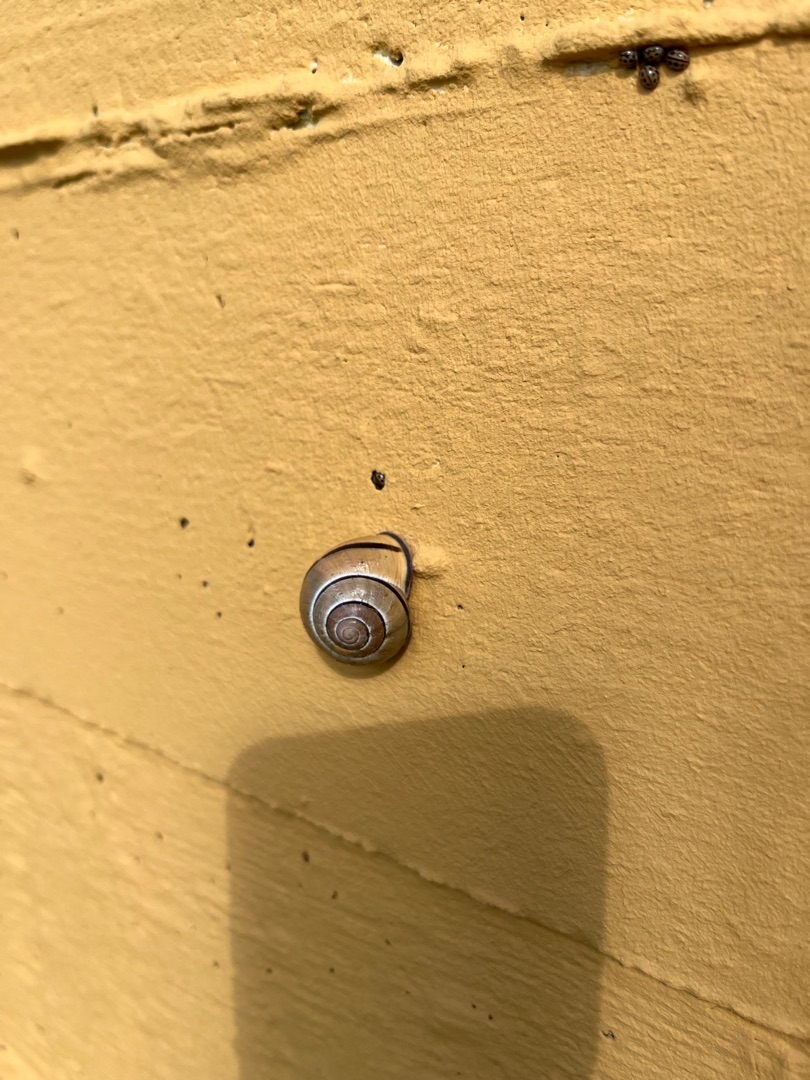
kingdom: Animalia
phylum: Mollusca
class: Gastropoda
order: Stylommatophora
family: Helicidae
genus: Cepaea
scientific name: Cepaea nemoralis
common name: Lundsnegl
